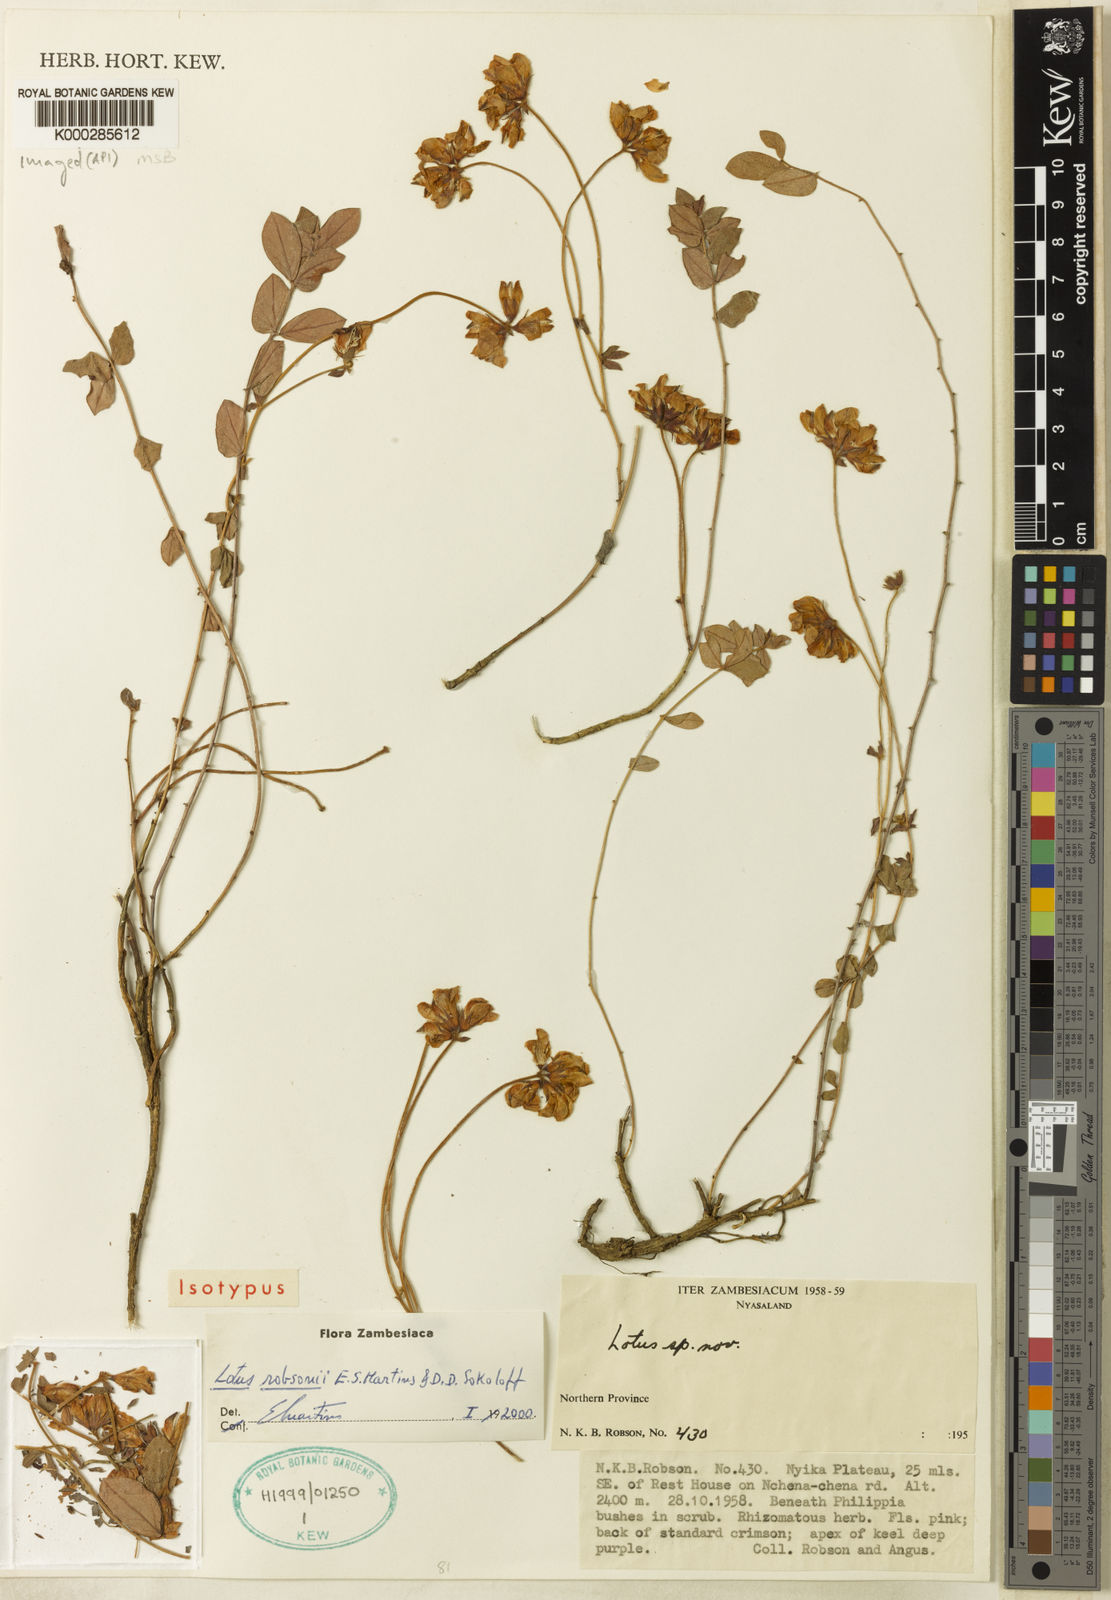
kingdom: Plantae
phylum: Tracheophyta
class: Magnoliopsida
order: Fabales
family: Fabaceae
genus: Lotus
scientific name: Lotus robsonii
